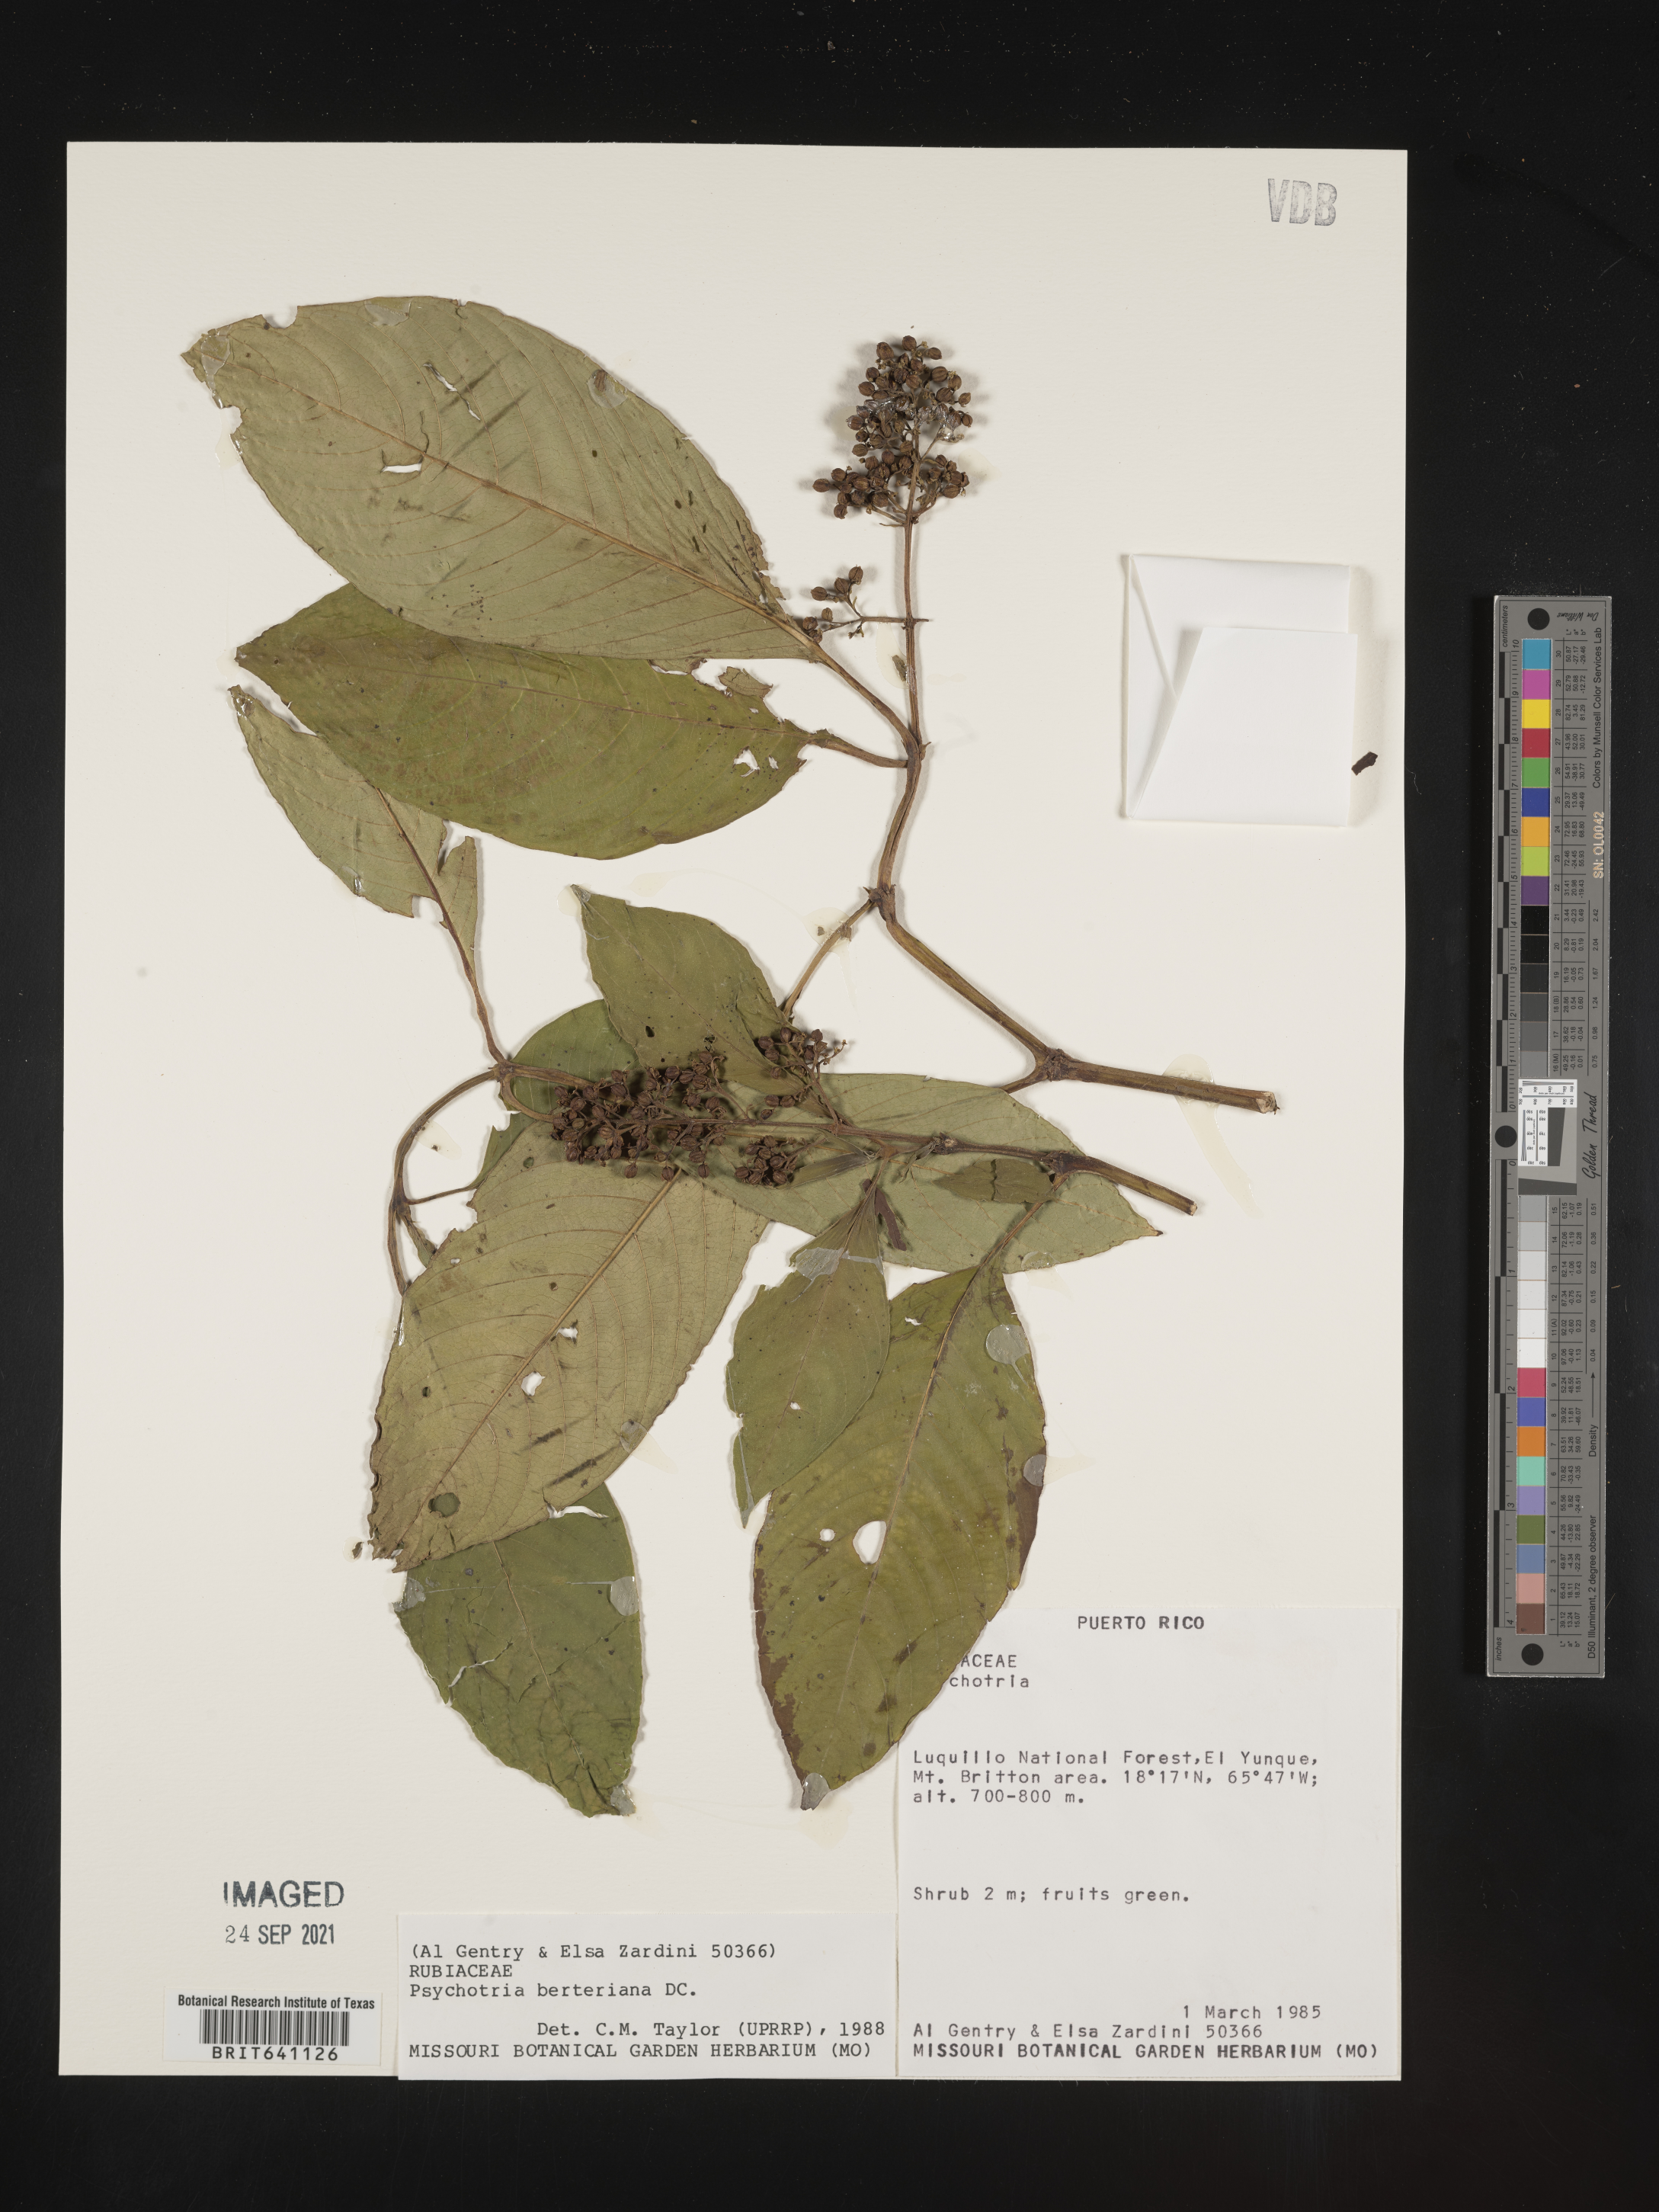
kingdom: Plantae
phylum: Tracheophyta
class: Magnoliopsida
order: Gentianales
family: Rubiaceae
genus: Psychotria
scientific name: Psychotria
